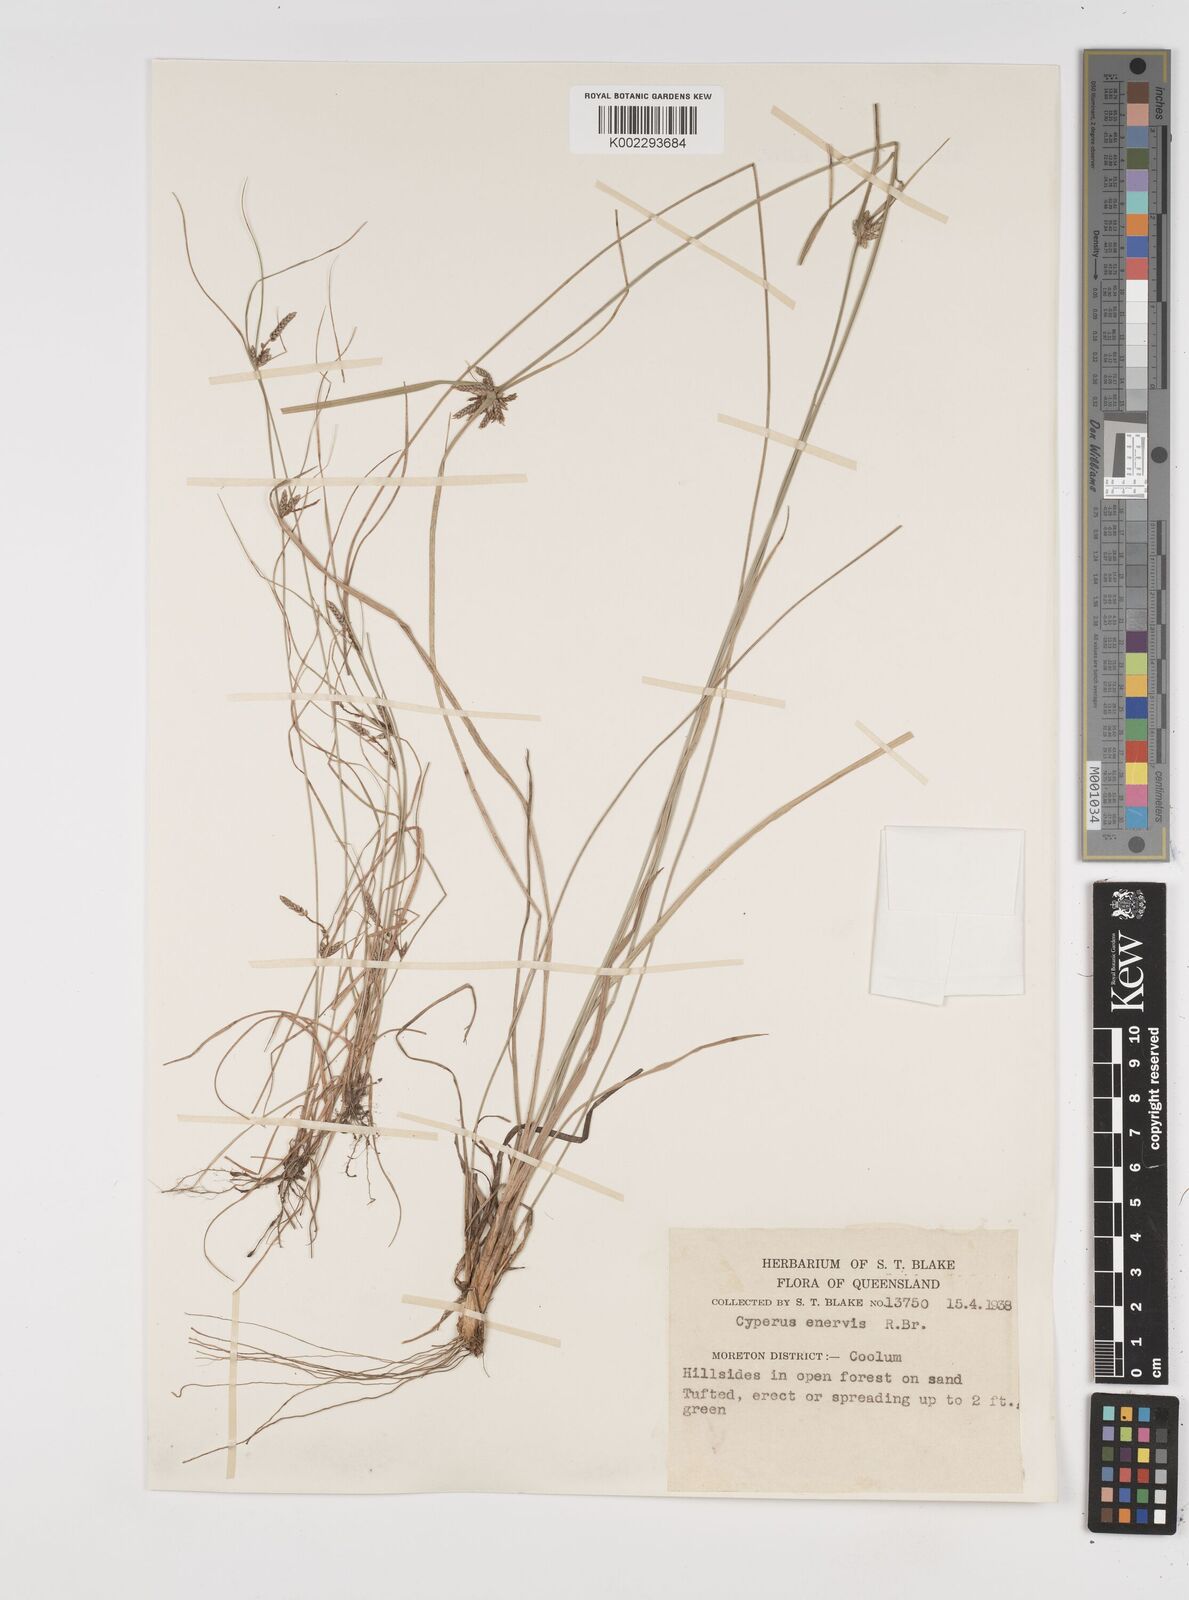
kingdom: Plantae
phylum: Tracheophyta
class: Liliopsida
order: Poales
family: Cyperaceae
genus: Cyperus
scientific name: Cyperus enervis
